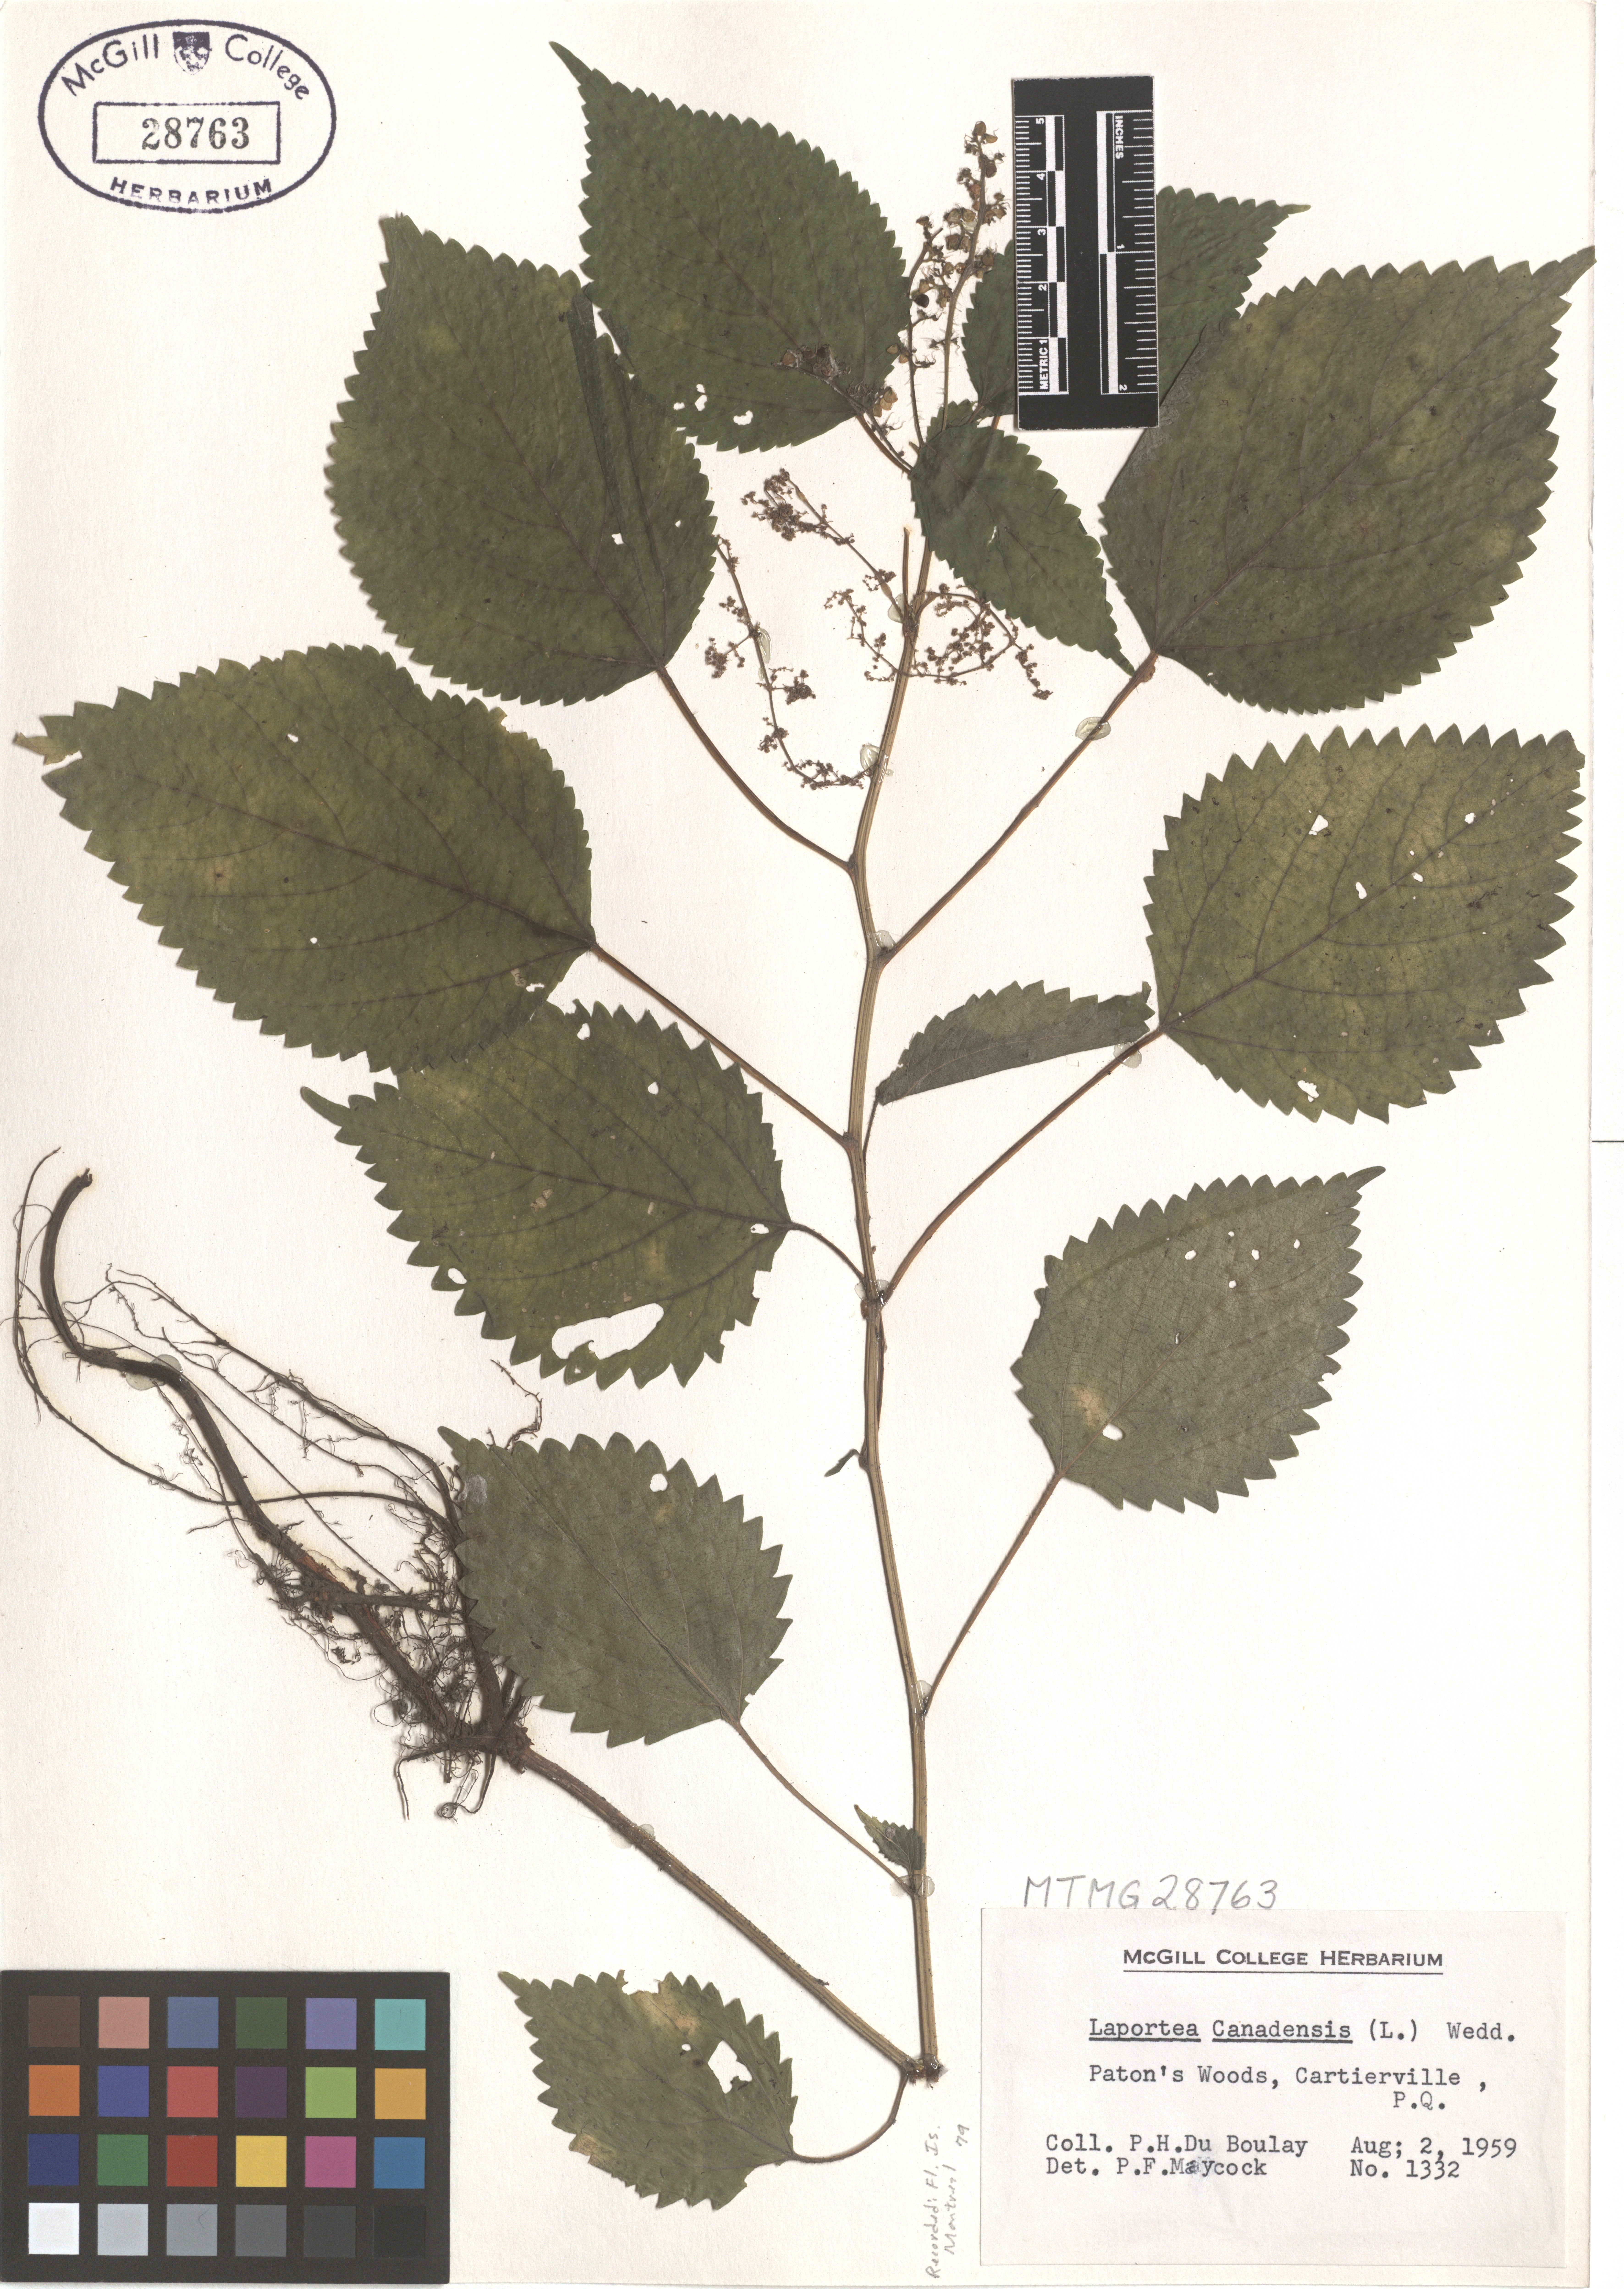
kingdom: Plantae
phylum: Tracheophyta
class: Magnoliopsida
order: Rosales
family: Urticaceae
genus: Laportea
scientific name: Laportea canadensis
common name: Canada nettle
